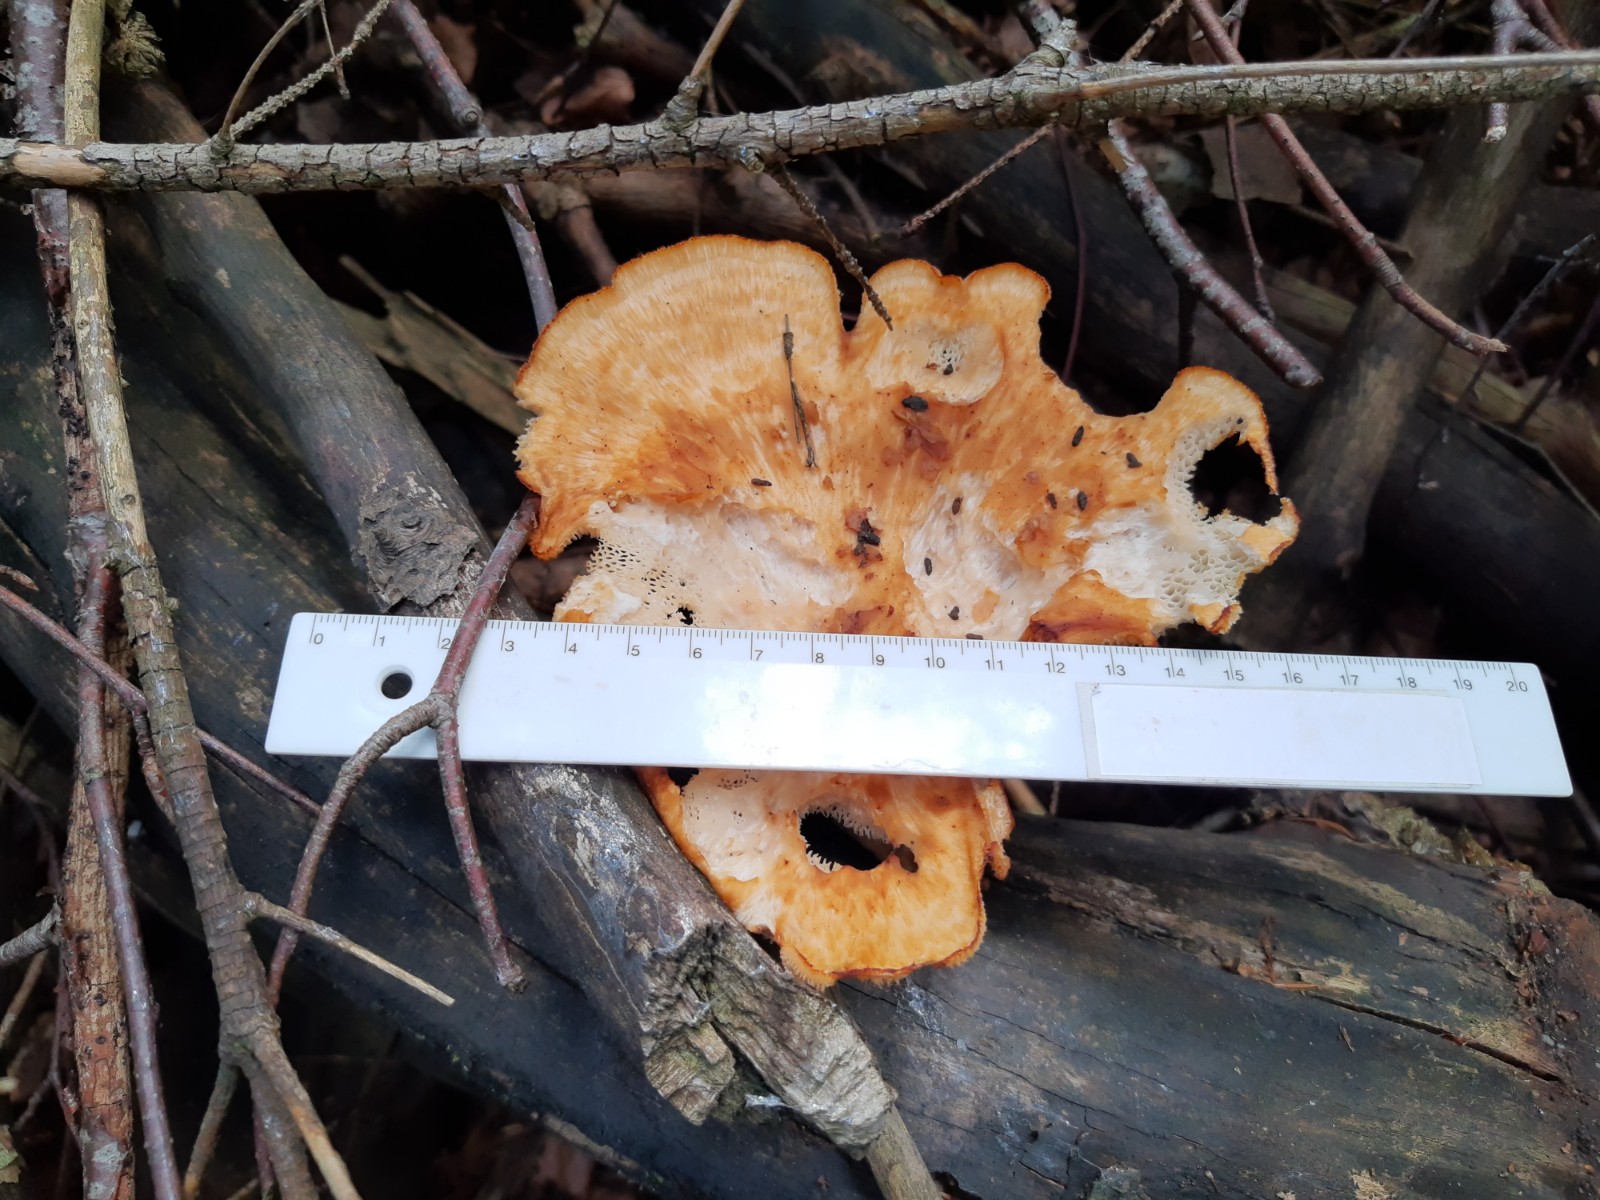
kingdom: Fungi
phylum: Basidiomycota
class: Agaricomycetes
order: Polyporales
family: Polyporaceae
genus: Polyporus
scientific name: Polyporus tuberaster
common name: knoldet stilkporesvamp
